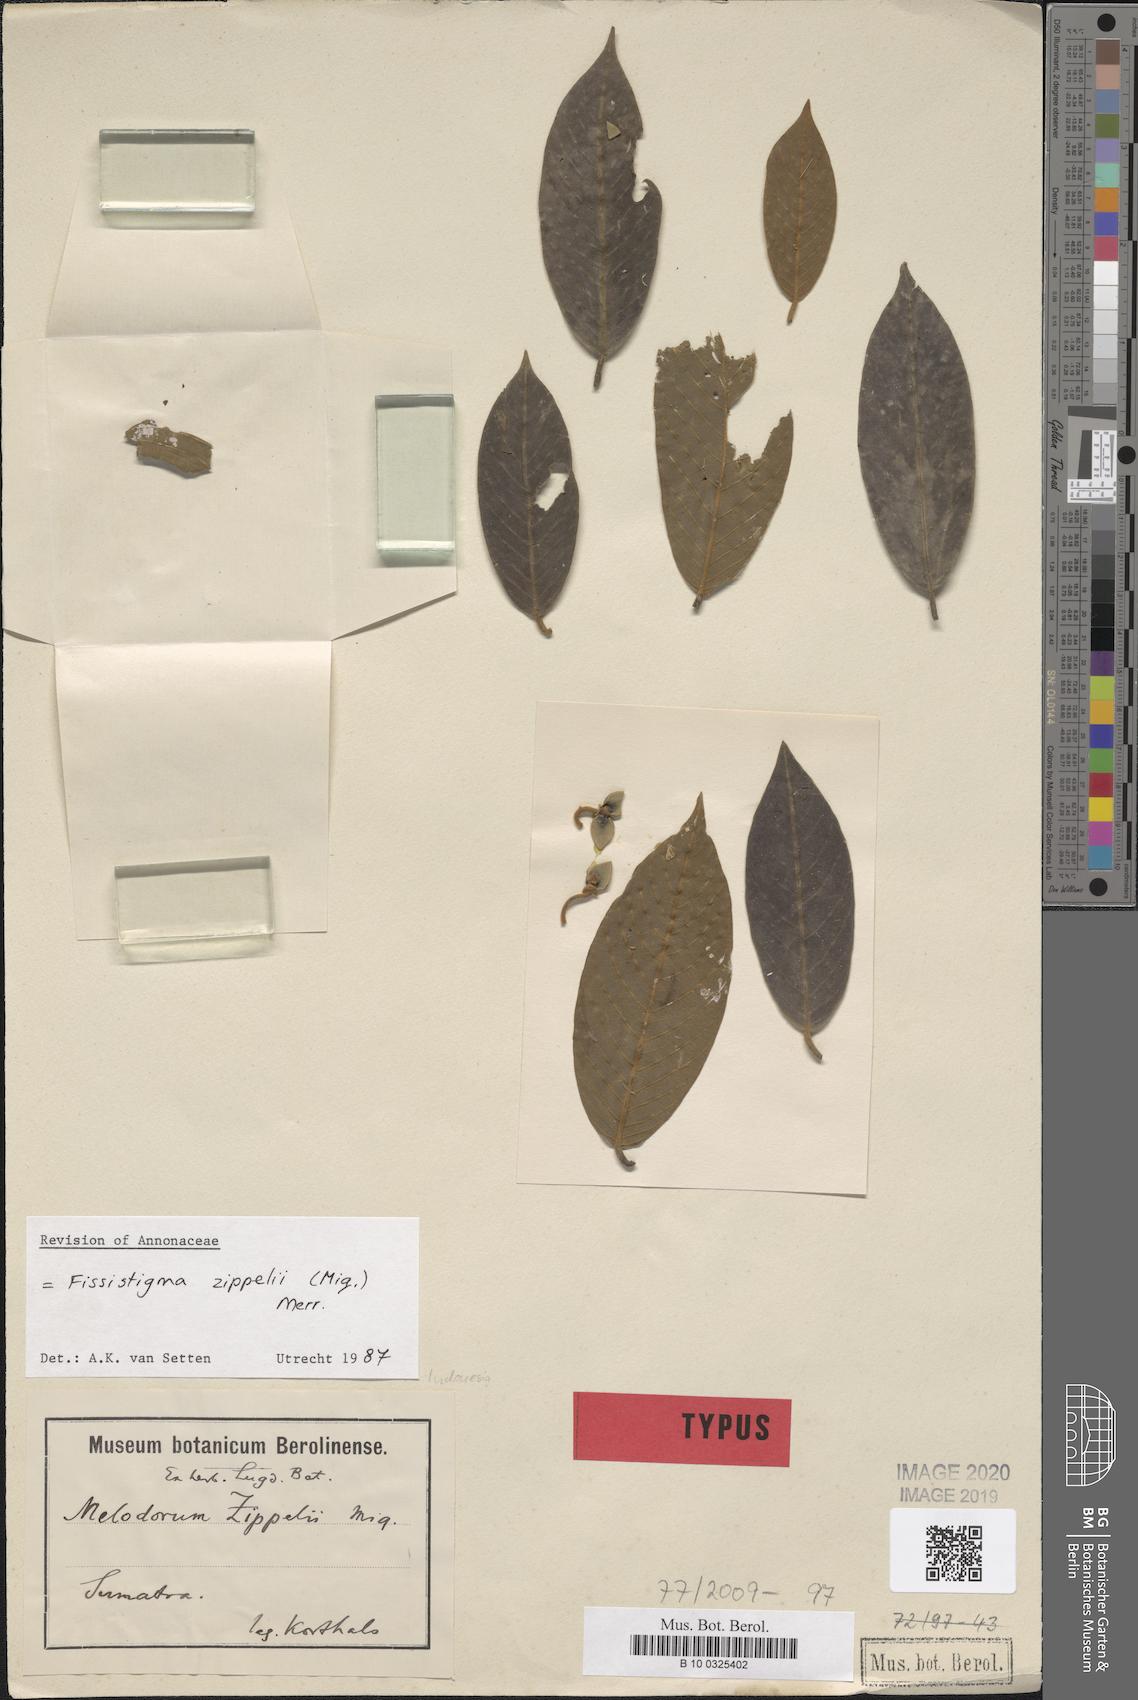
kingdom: Plantae
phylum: Tracheophyta
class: Magnoliopsida
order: Magnoliales
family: Annonaceae
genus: Melodorum
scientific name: Melodorum zippelii
